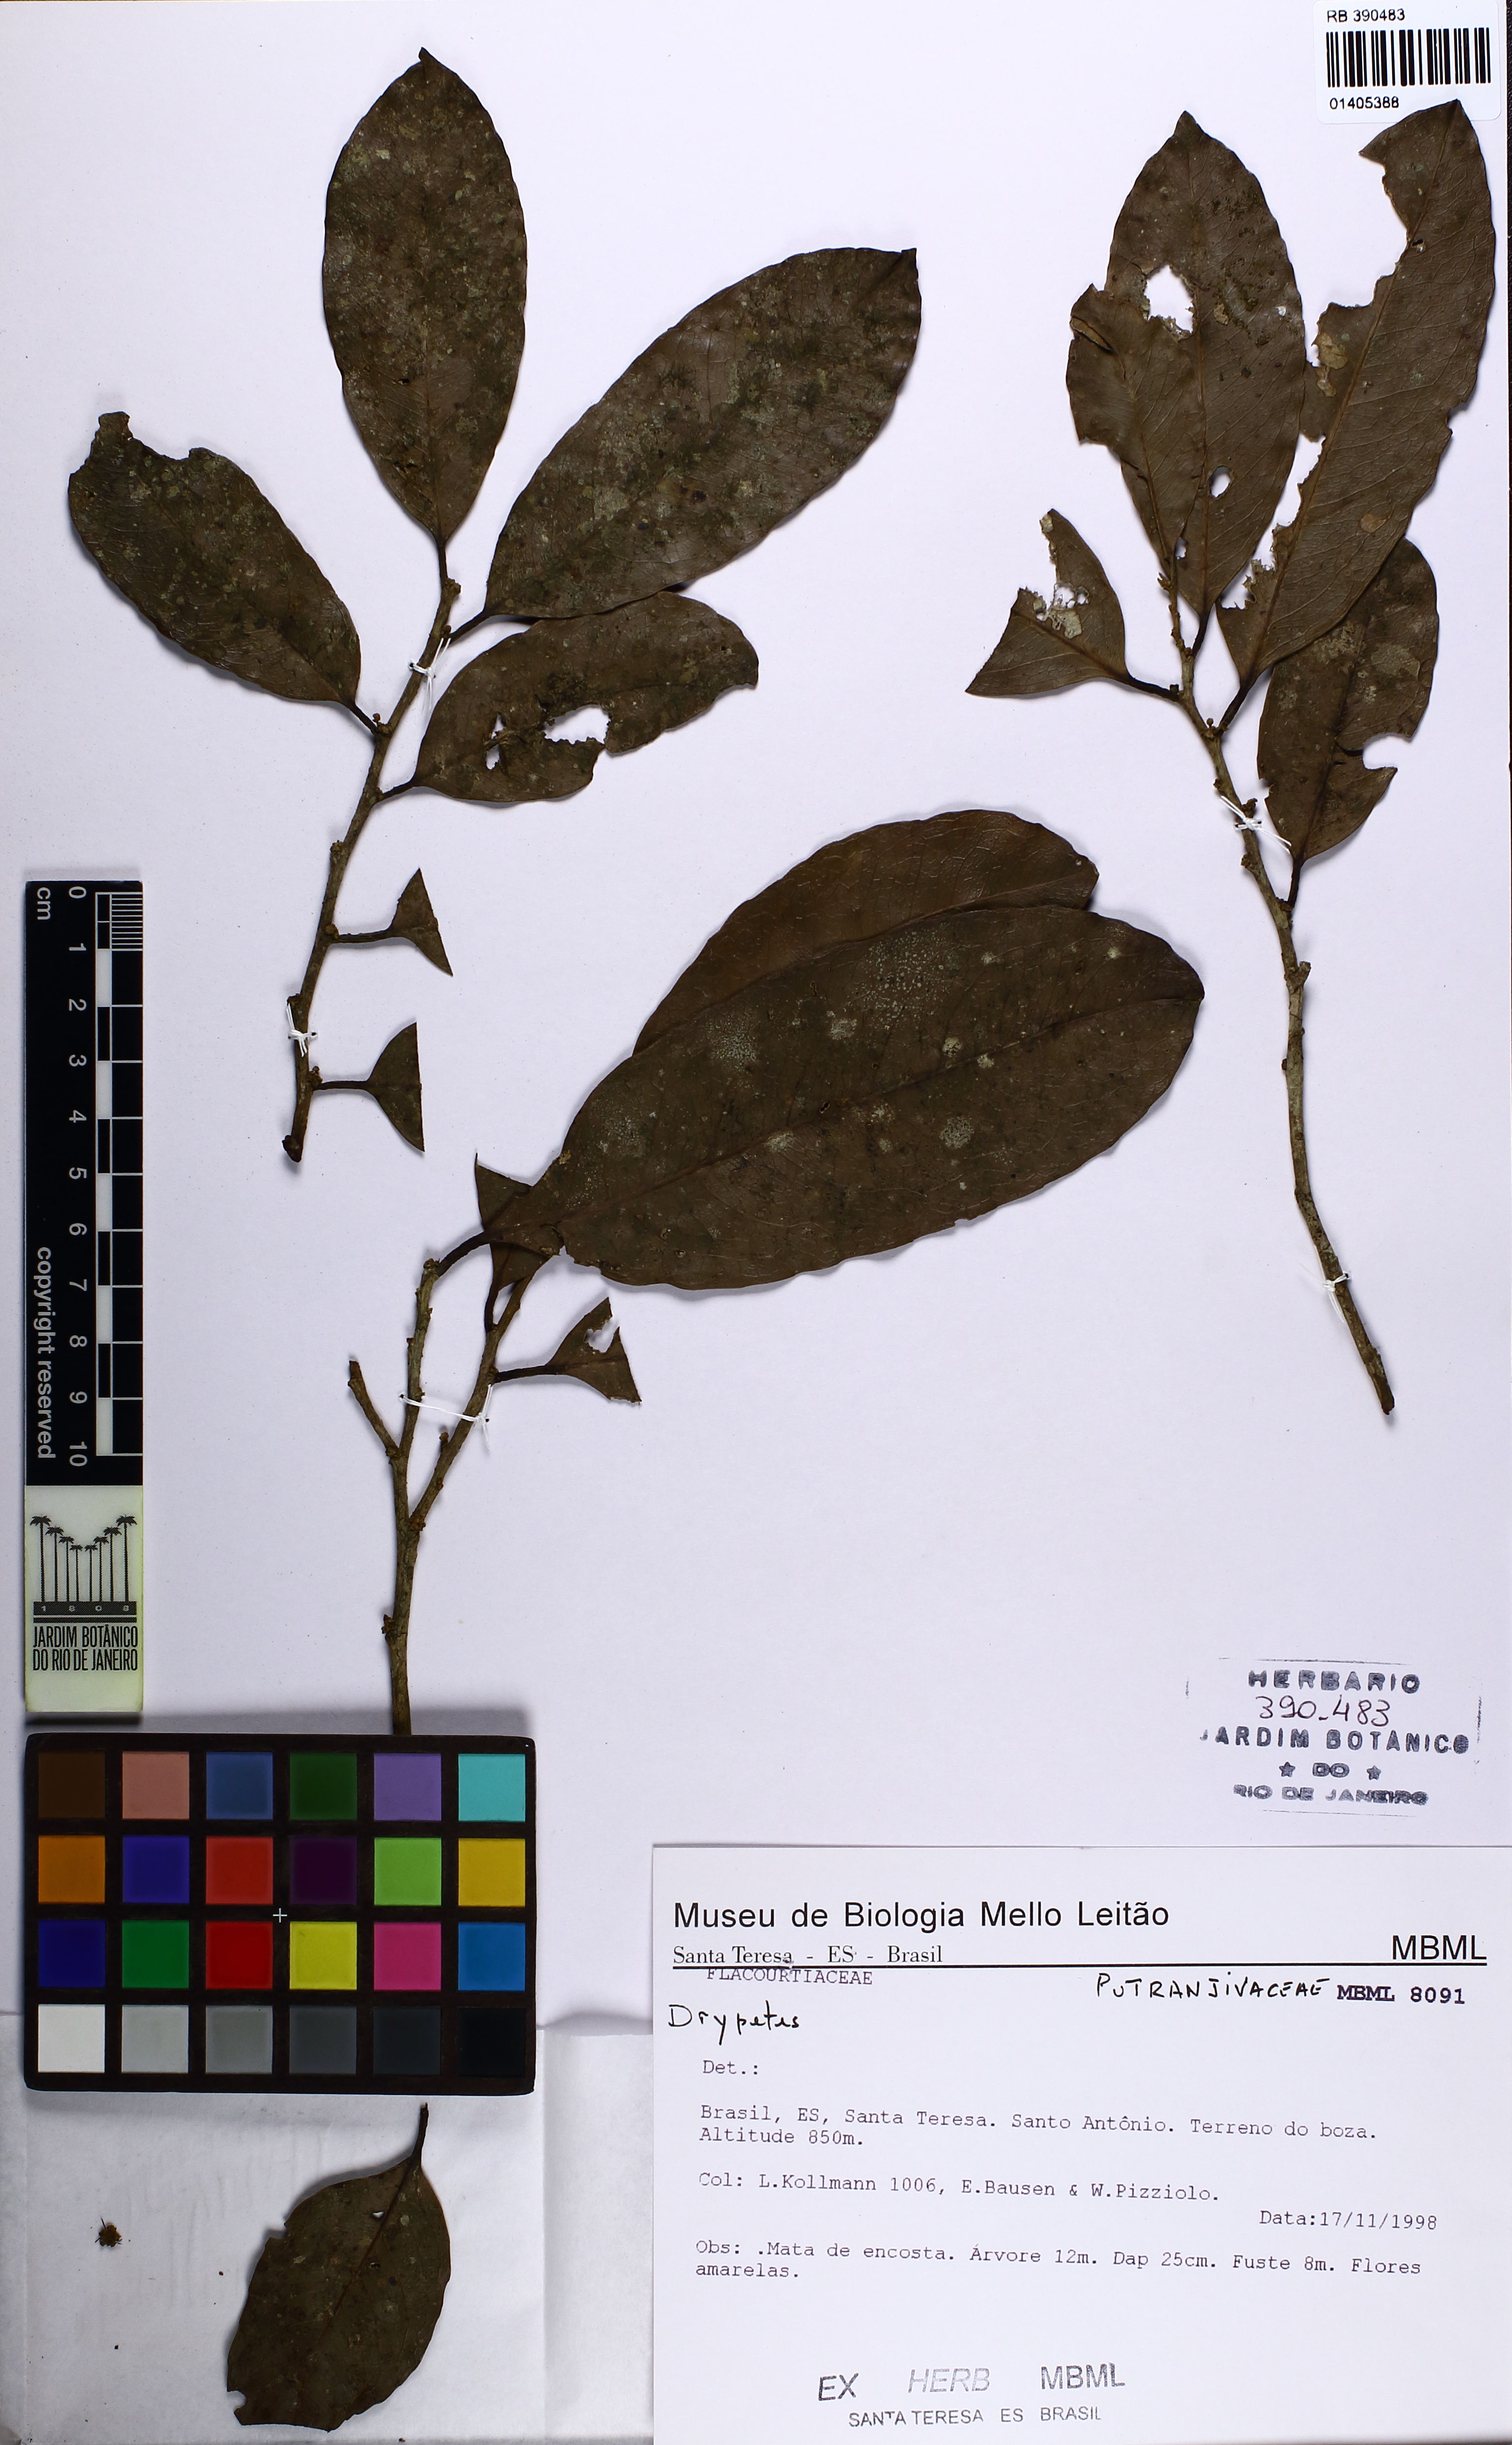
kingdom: Plantae
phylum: Tracheophyta
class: Magnoliopsida
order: Malpighiales
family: Putranjivaceae
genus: Drypetes
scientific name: Drypetes
